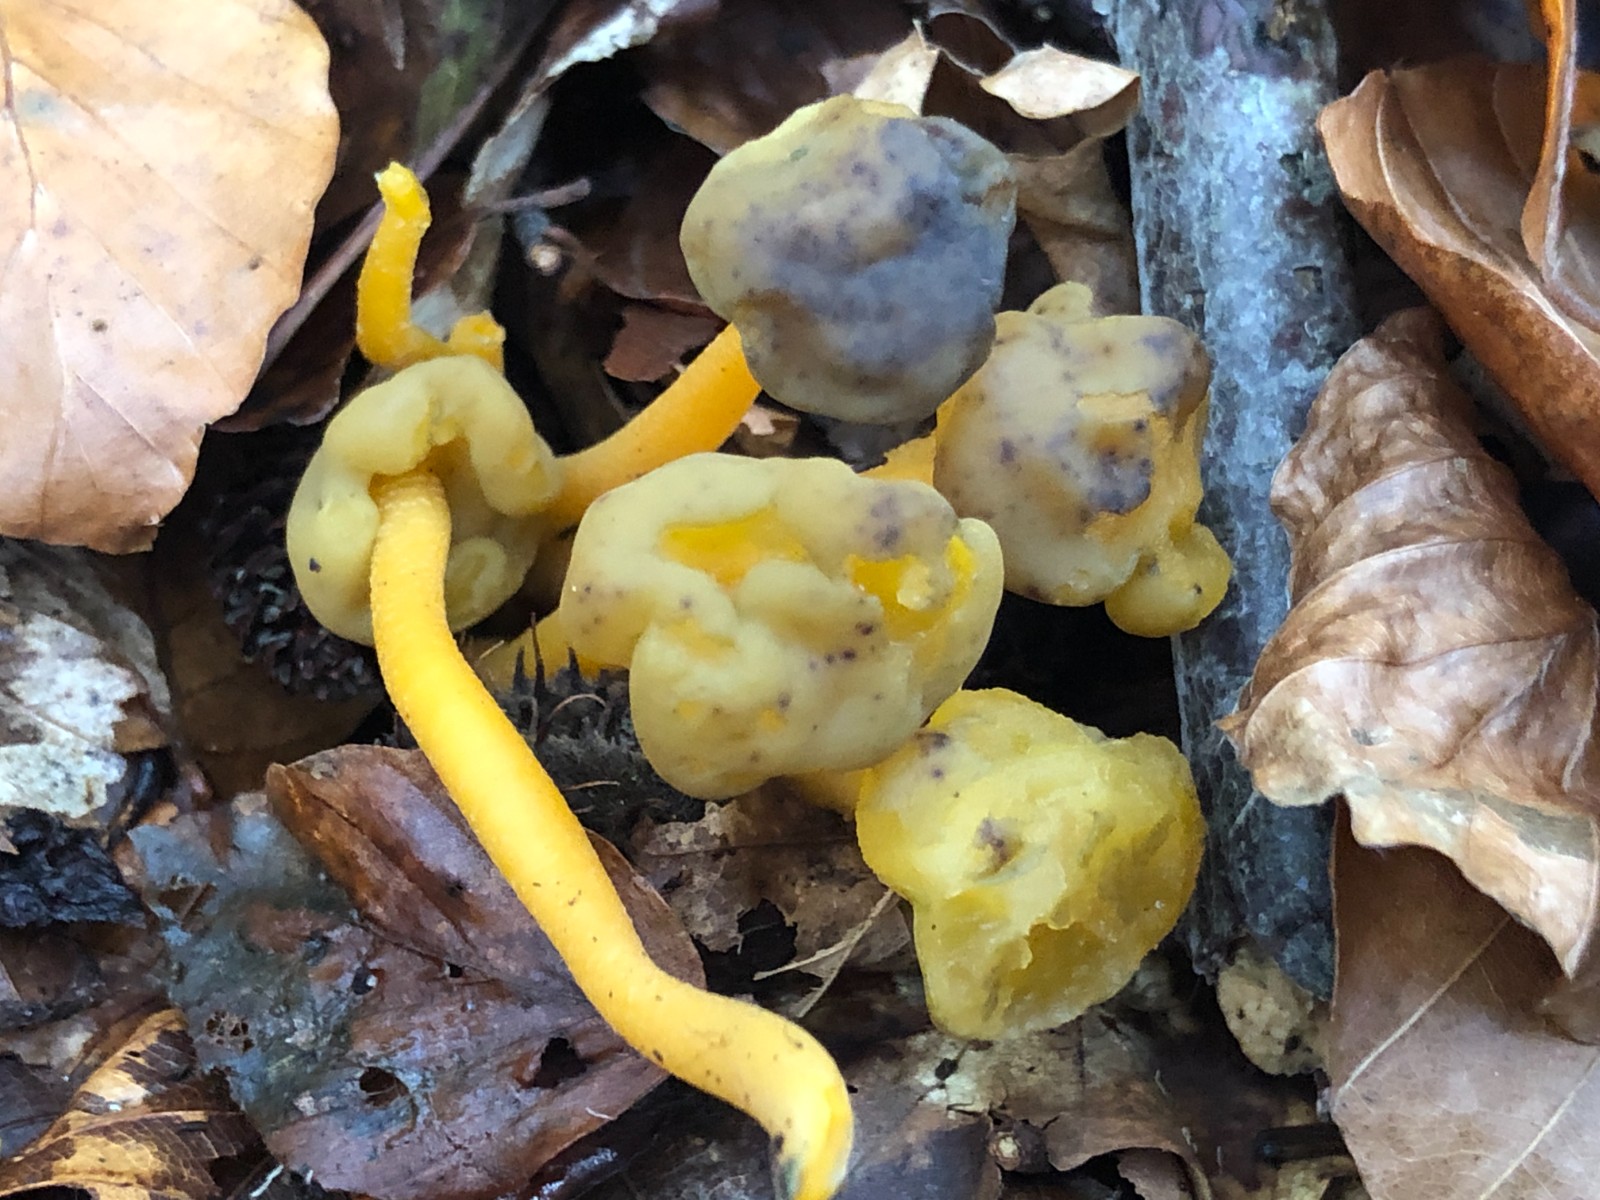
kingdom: Fungi
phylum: Ascomycota
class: Leotiomycetes
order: Leotiales
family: Leotiaceae
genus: Leotia
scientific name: Leotia lubrica
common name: ravsvamp
